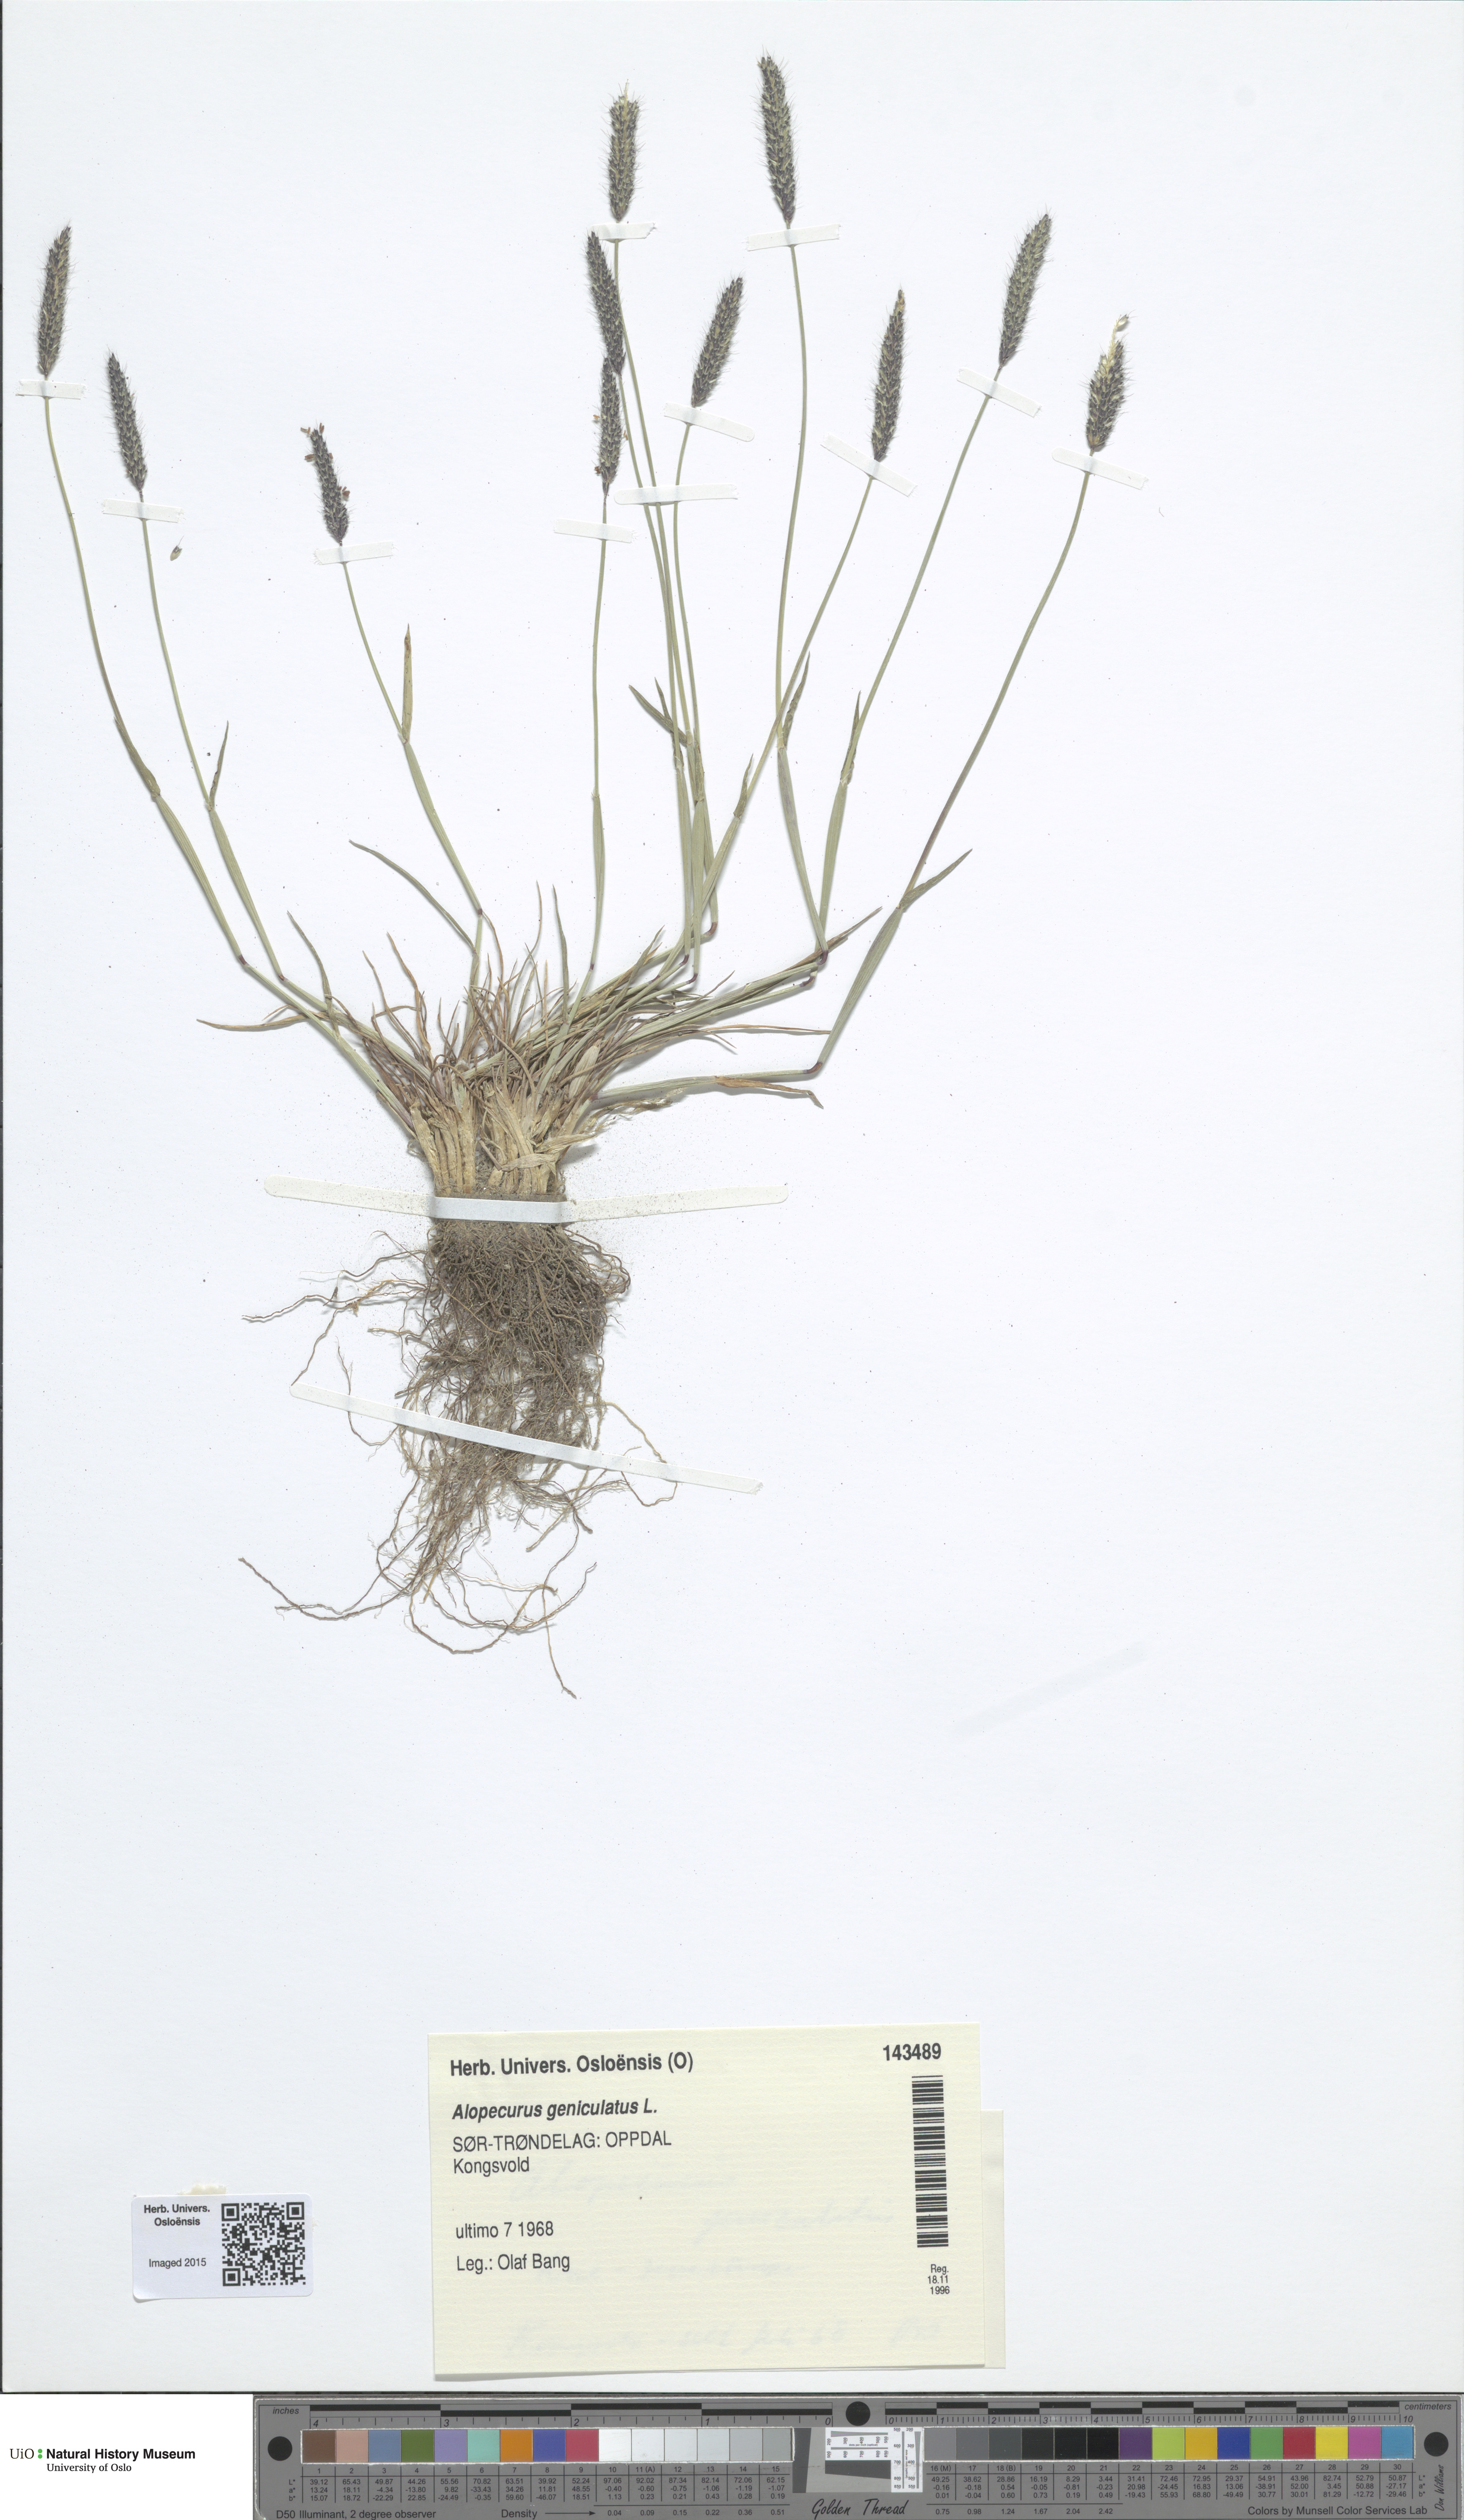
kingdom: Plantae
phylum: Tracheophyta
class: Liliopsida
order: Poales
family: Poaceae
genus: Alopecurus
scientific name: Alopecurus geniculatus
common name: Water foxtail
